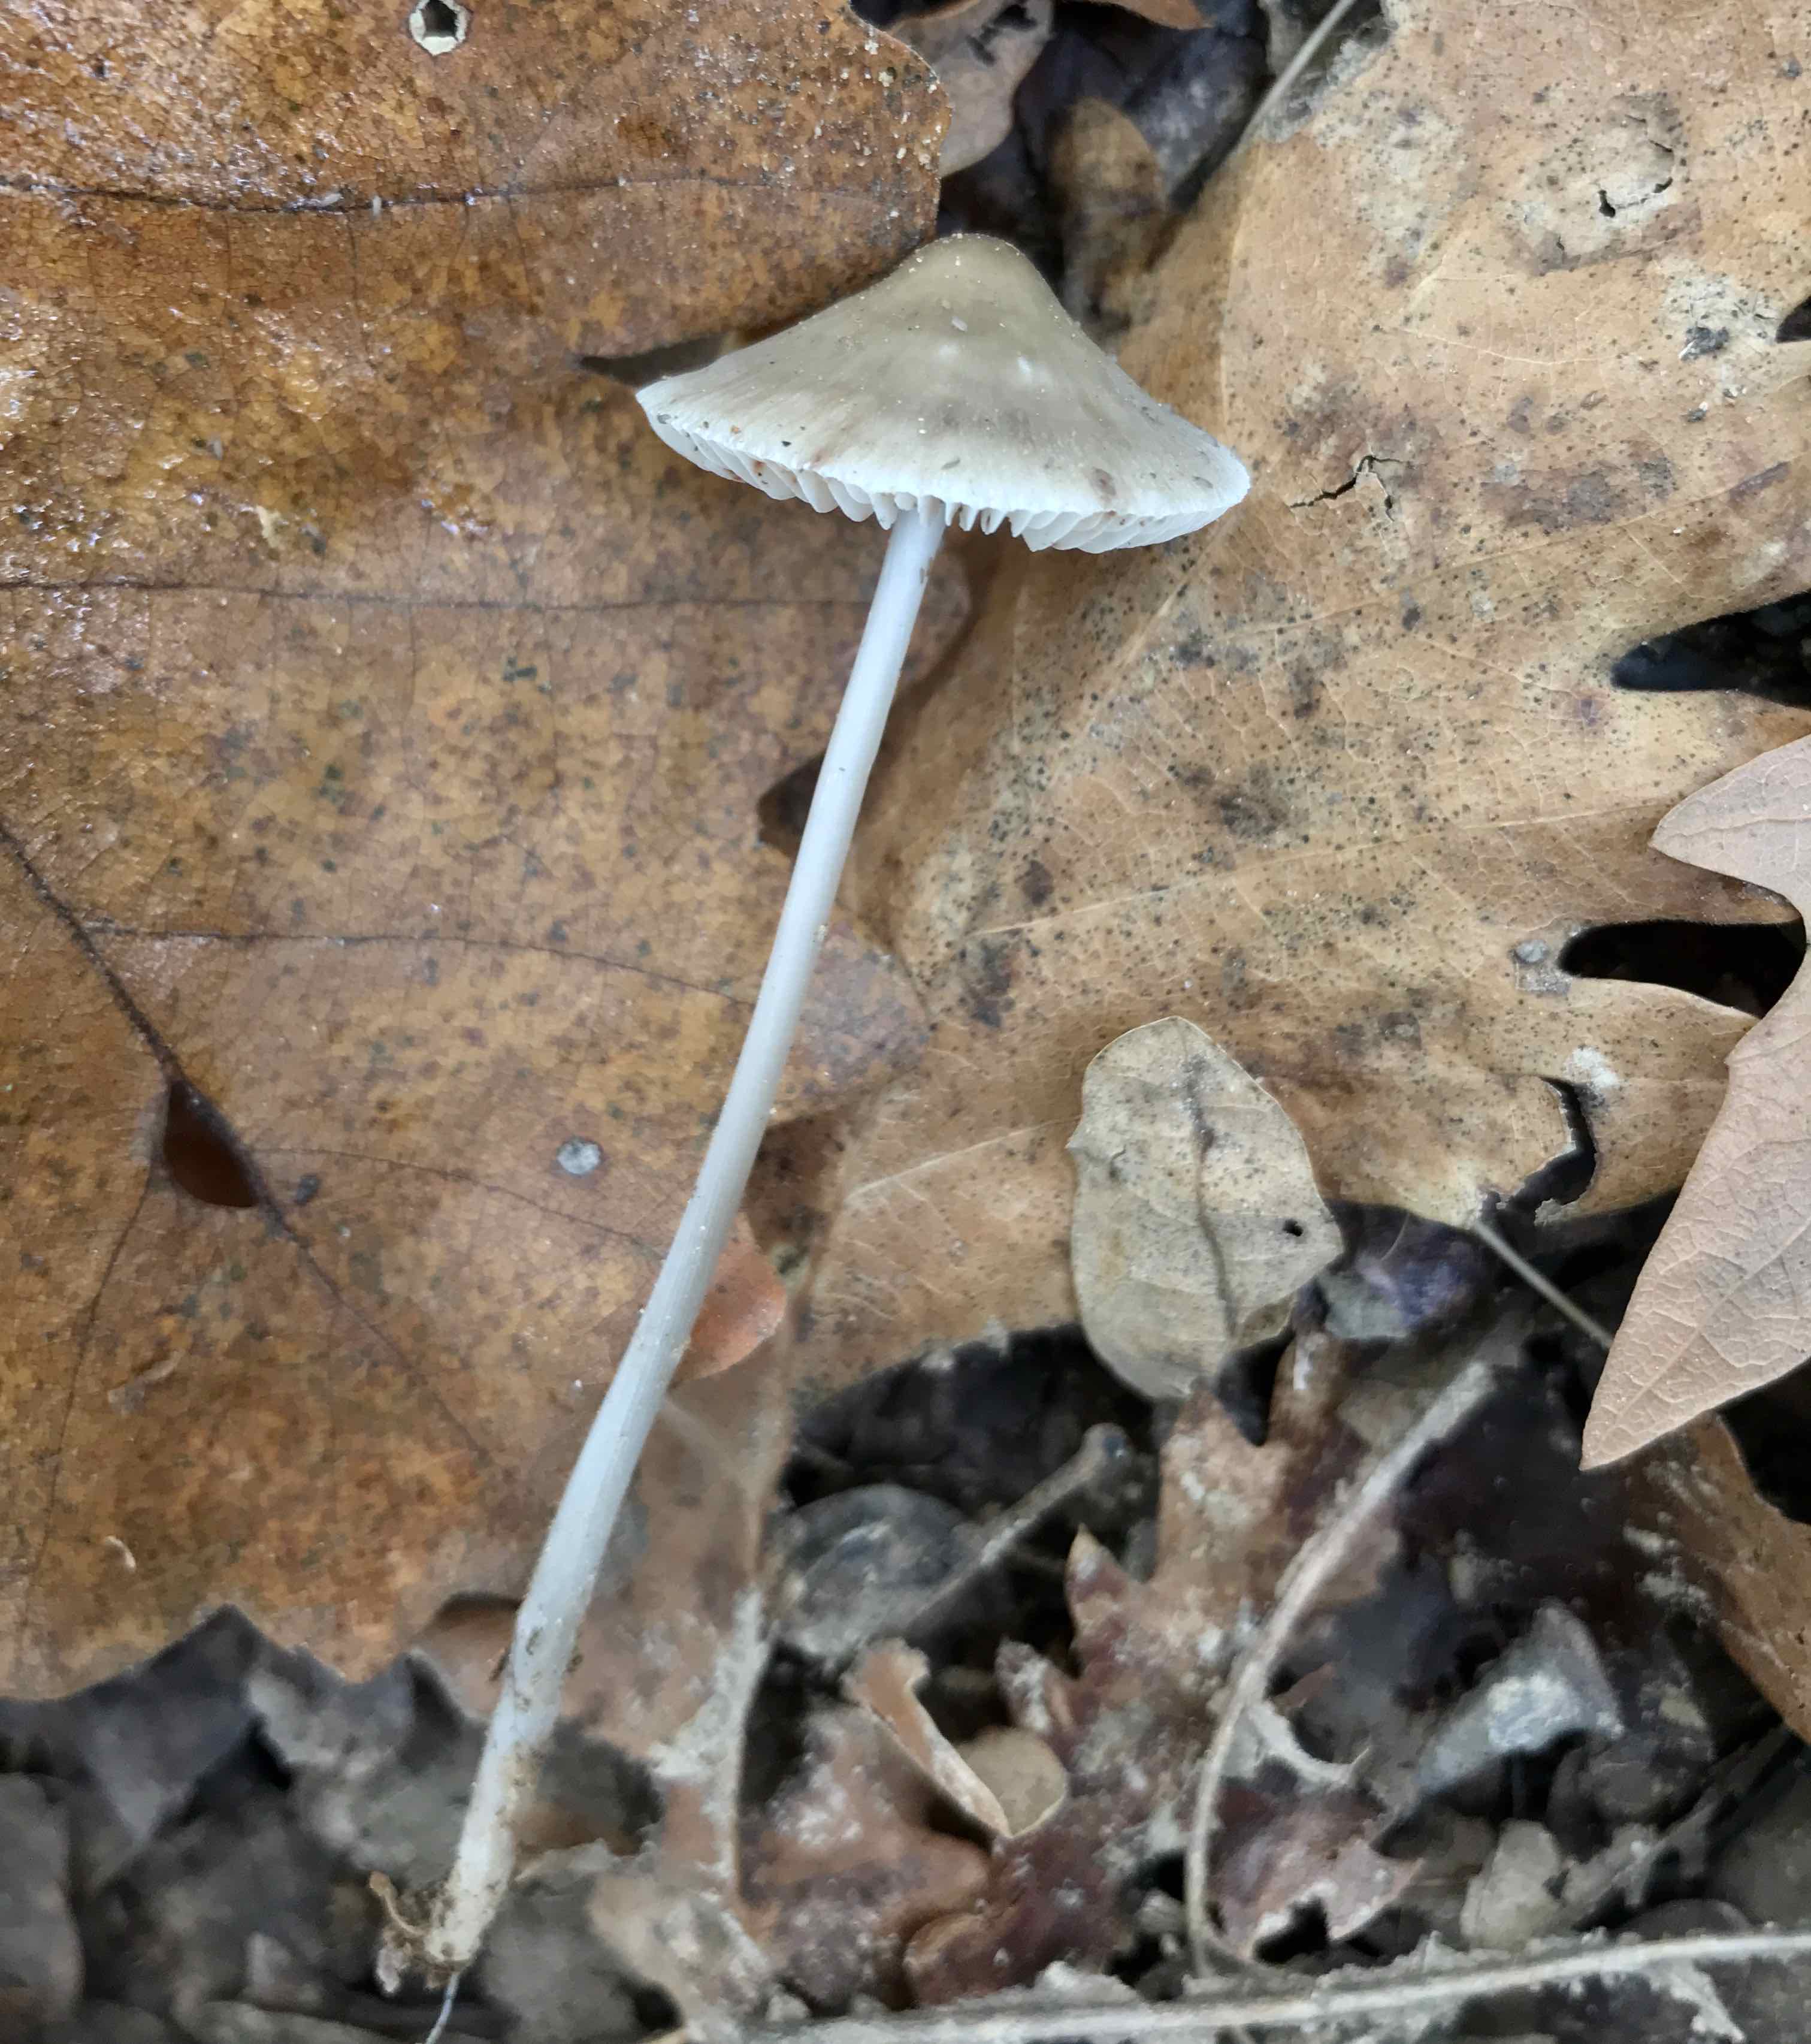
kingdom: Fungi
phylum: Basidiomycota
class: Agaricomycetes
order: Agaricales
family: Mycenaceae
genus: Mycena
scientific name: Mycena polygramma
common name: mangestribet huesvamp
